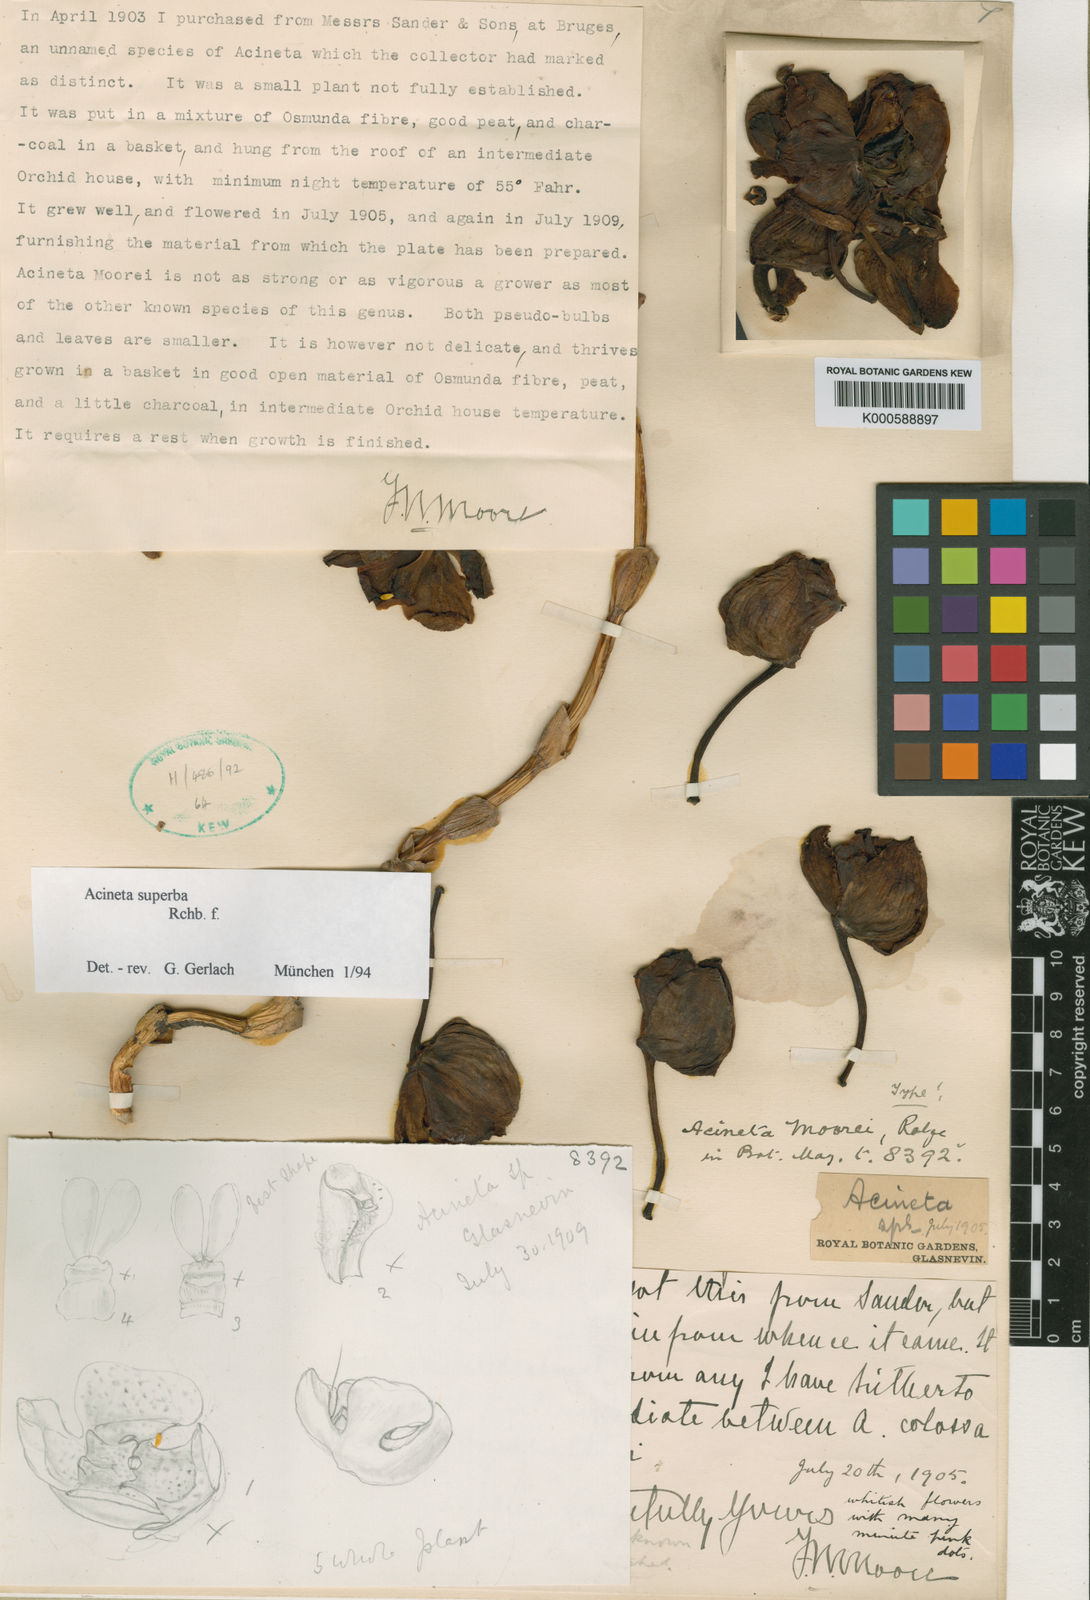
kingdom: Plantae
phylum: Tracheophyta
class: Liliopsida
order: Asparagales
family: Orchidaceae
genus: Acineta
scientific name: Acineta hrubyana
